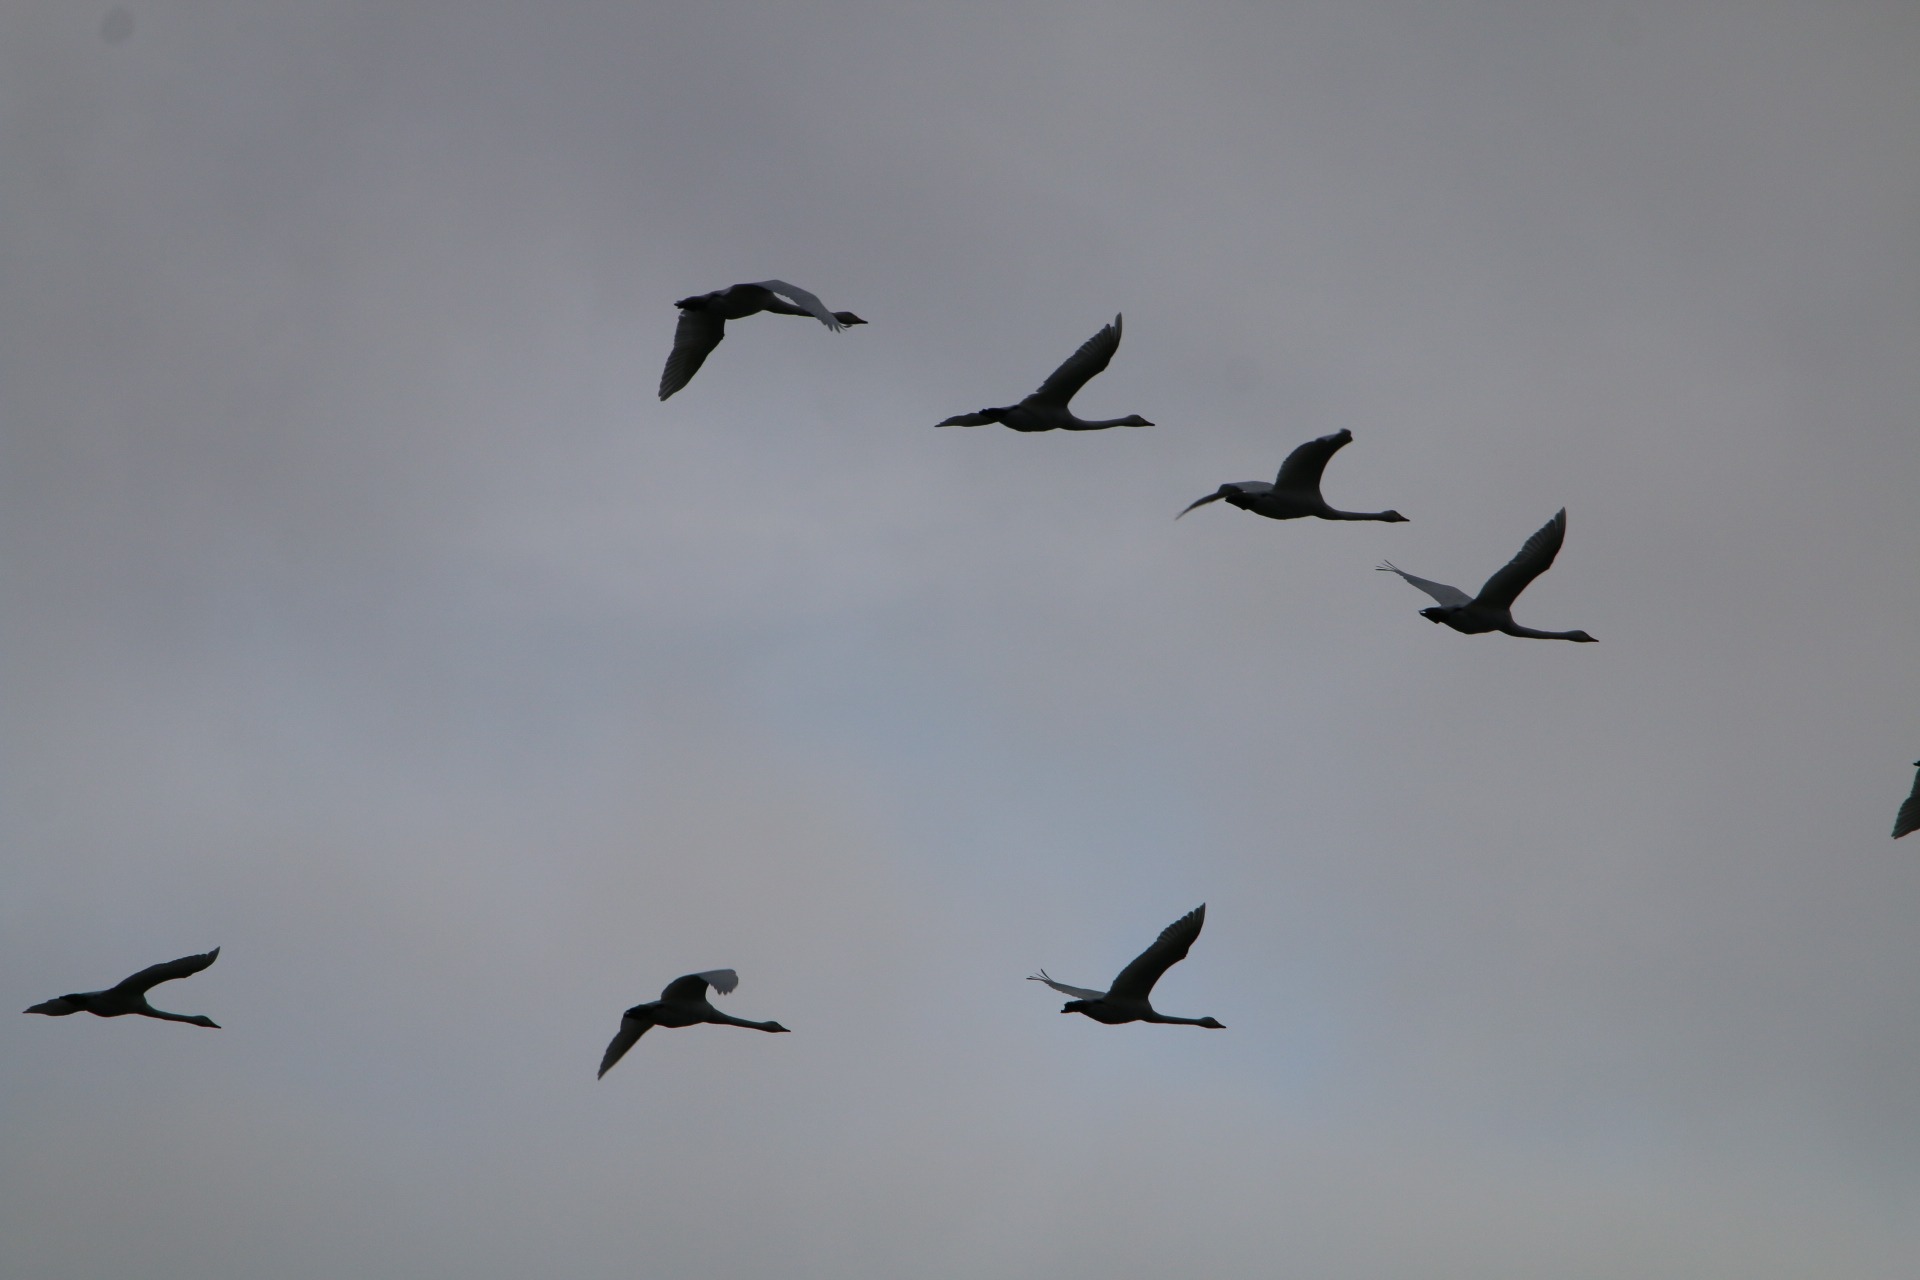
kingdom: Animalia
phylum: Chordata
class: Aves
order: Anseriformes
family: Anatidae
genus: Cygnus
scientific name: Cygnus cygnus
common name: Sangsvane
